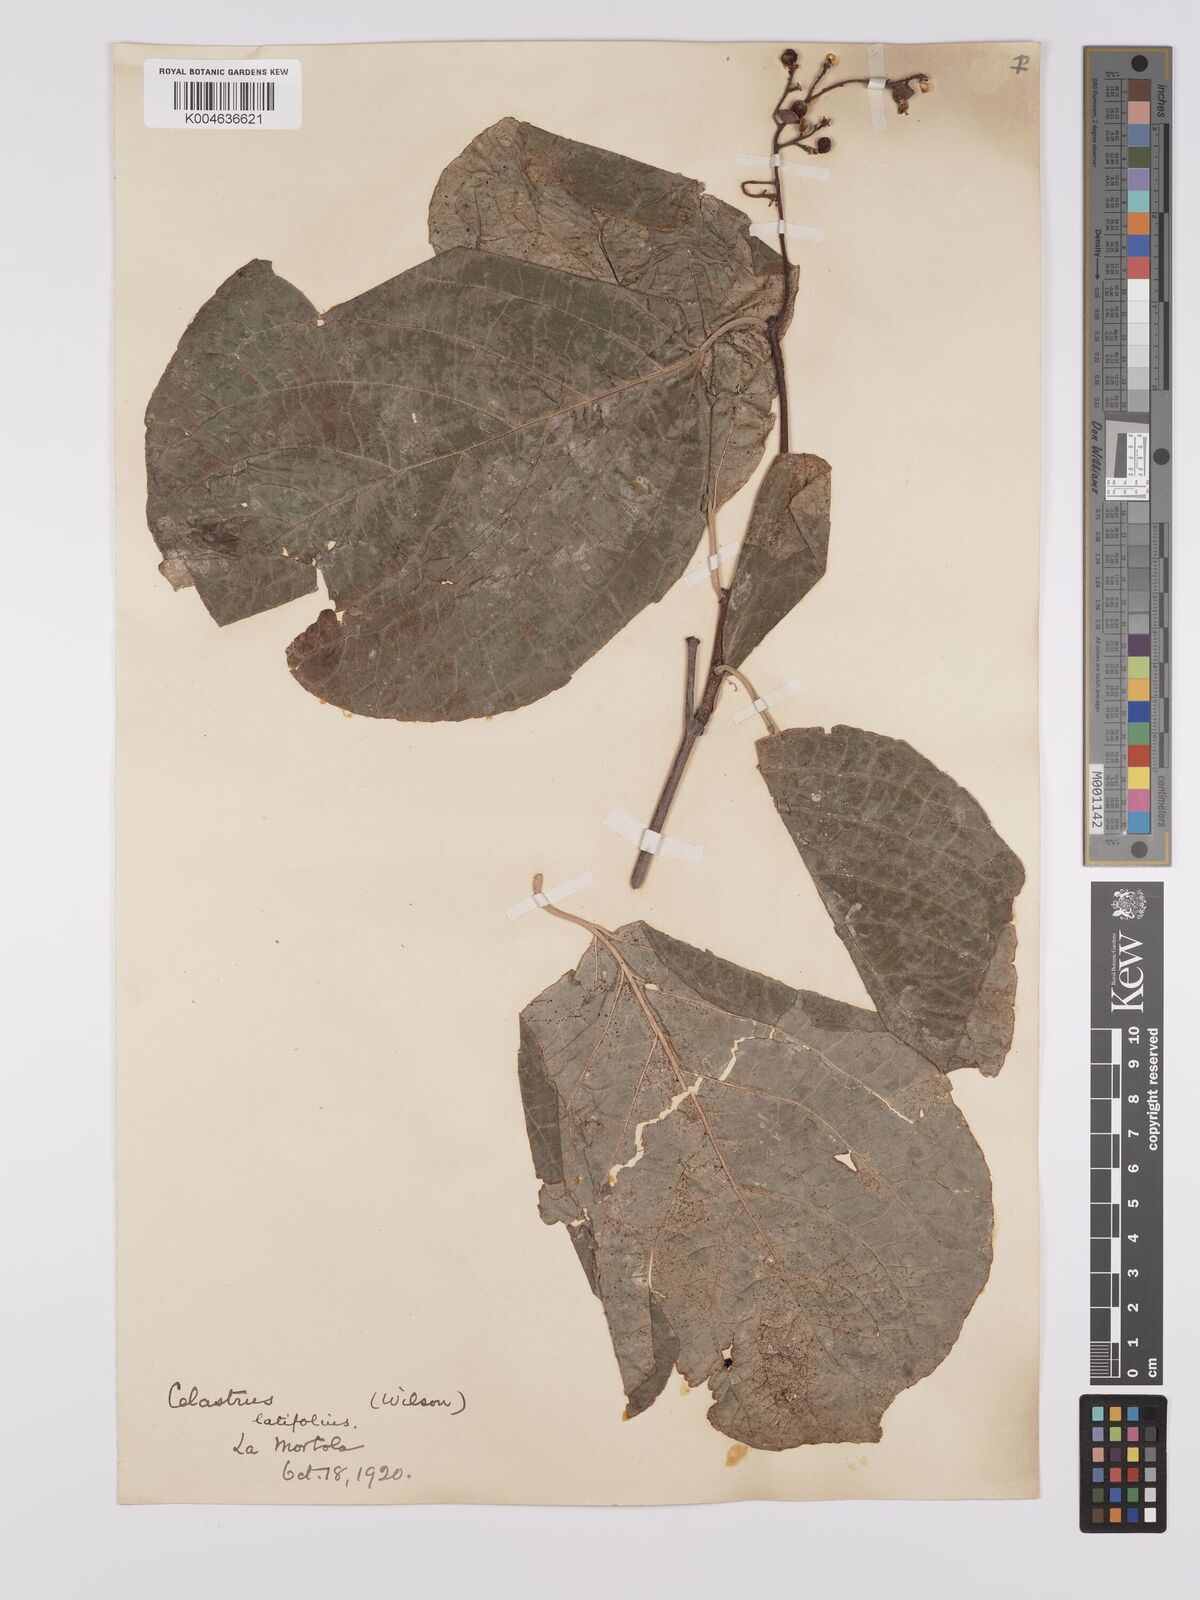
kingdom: Plantae
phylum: Tracheophyta
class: Magnoliopsida
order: Celastrales
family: Celastraceae
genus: Celastrus
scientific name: Celastrus angulatus
